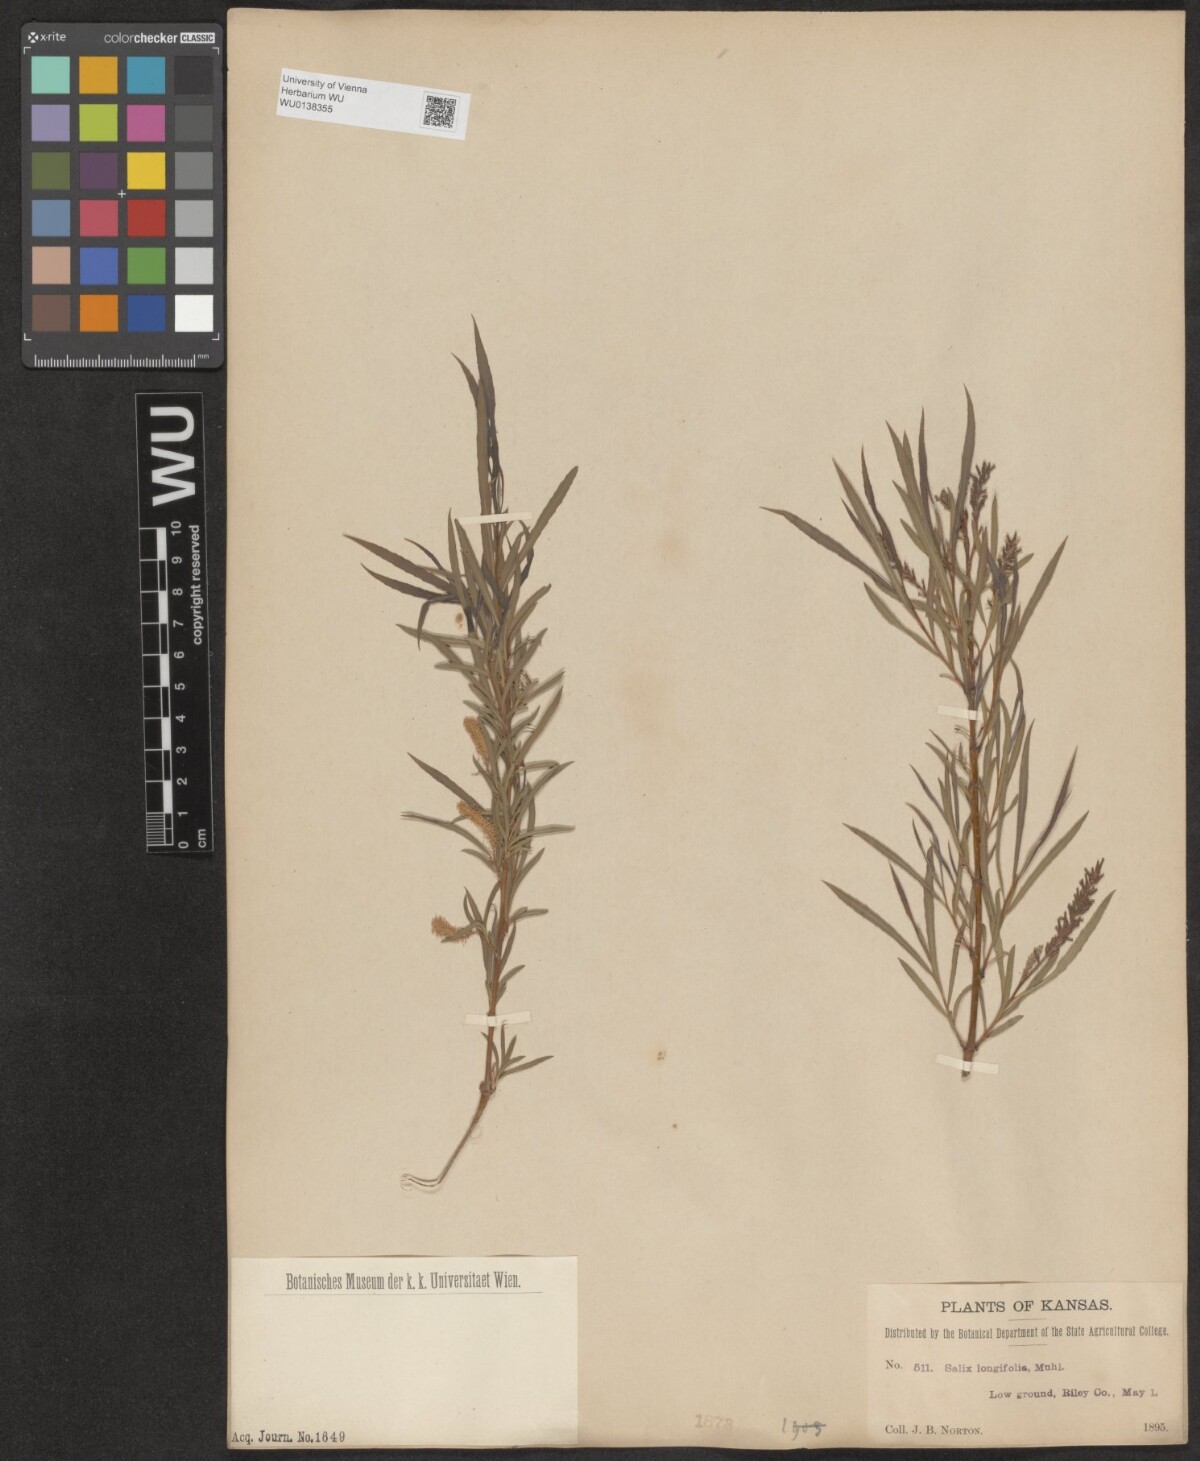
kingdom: Plantae
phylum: Tracheophyta
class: Magnoliopsida
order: Malpighiales
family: Salicaceae
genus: Salix
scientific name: Salix interior
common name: Sandbar willow
